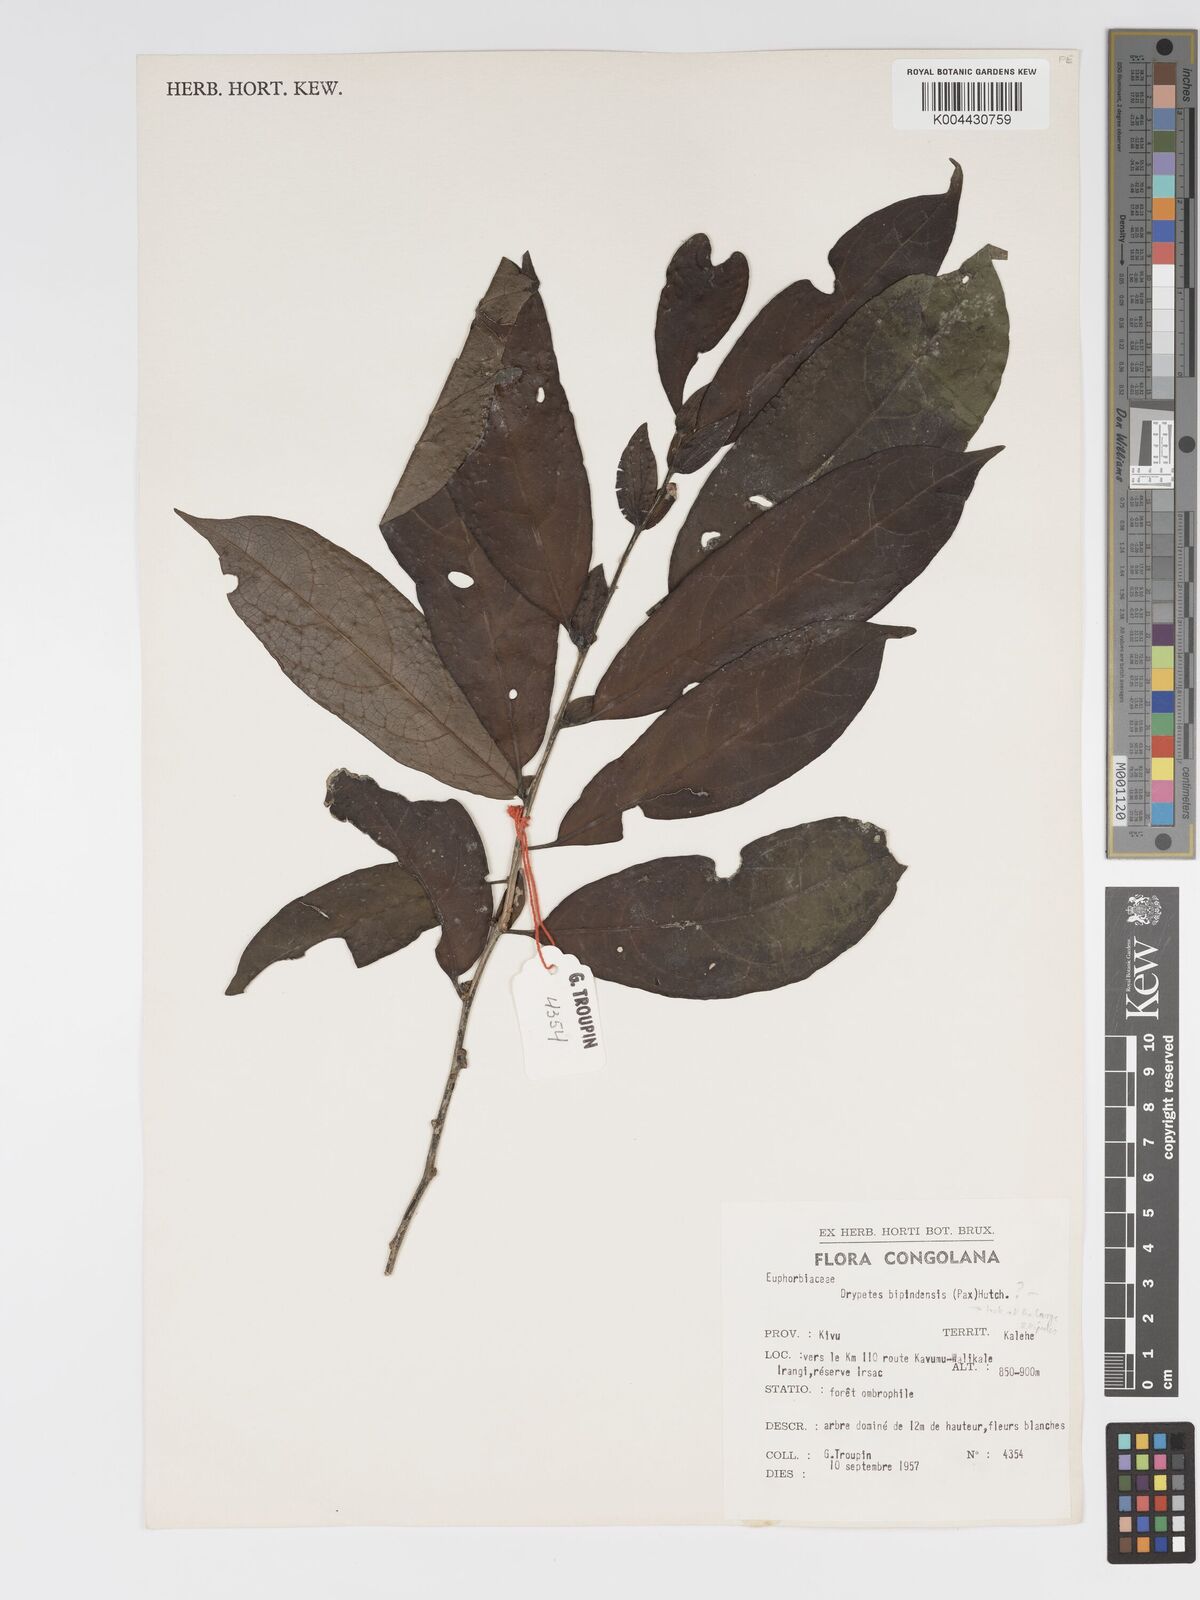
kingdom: Plantae
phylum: Tracheophyta
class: Magnoliopsida
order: Malpighiales
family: Putranjivaceae
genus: Drypetes
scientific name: Drypetes bipindensis
